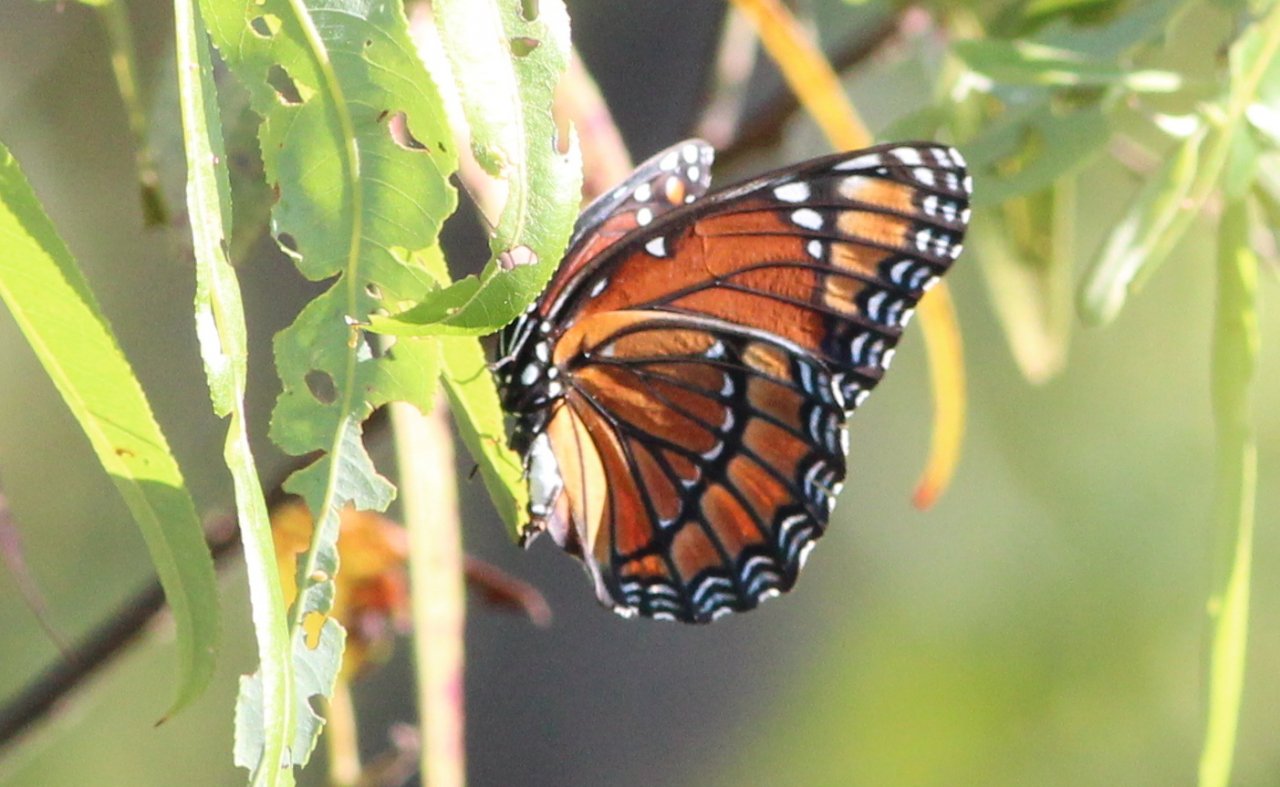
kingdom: Animalia
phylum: Arthropoda
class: Insecta
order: Lepidoptera
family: Nymphalidae
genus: Limenitis
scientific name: Limenitis archippus
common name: Viceroy
